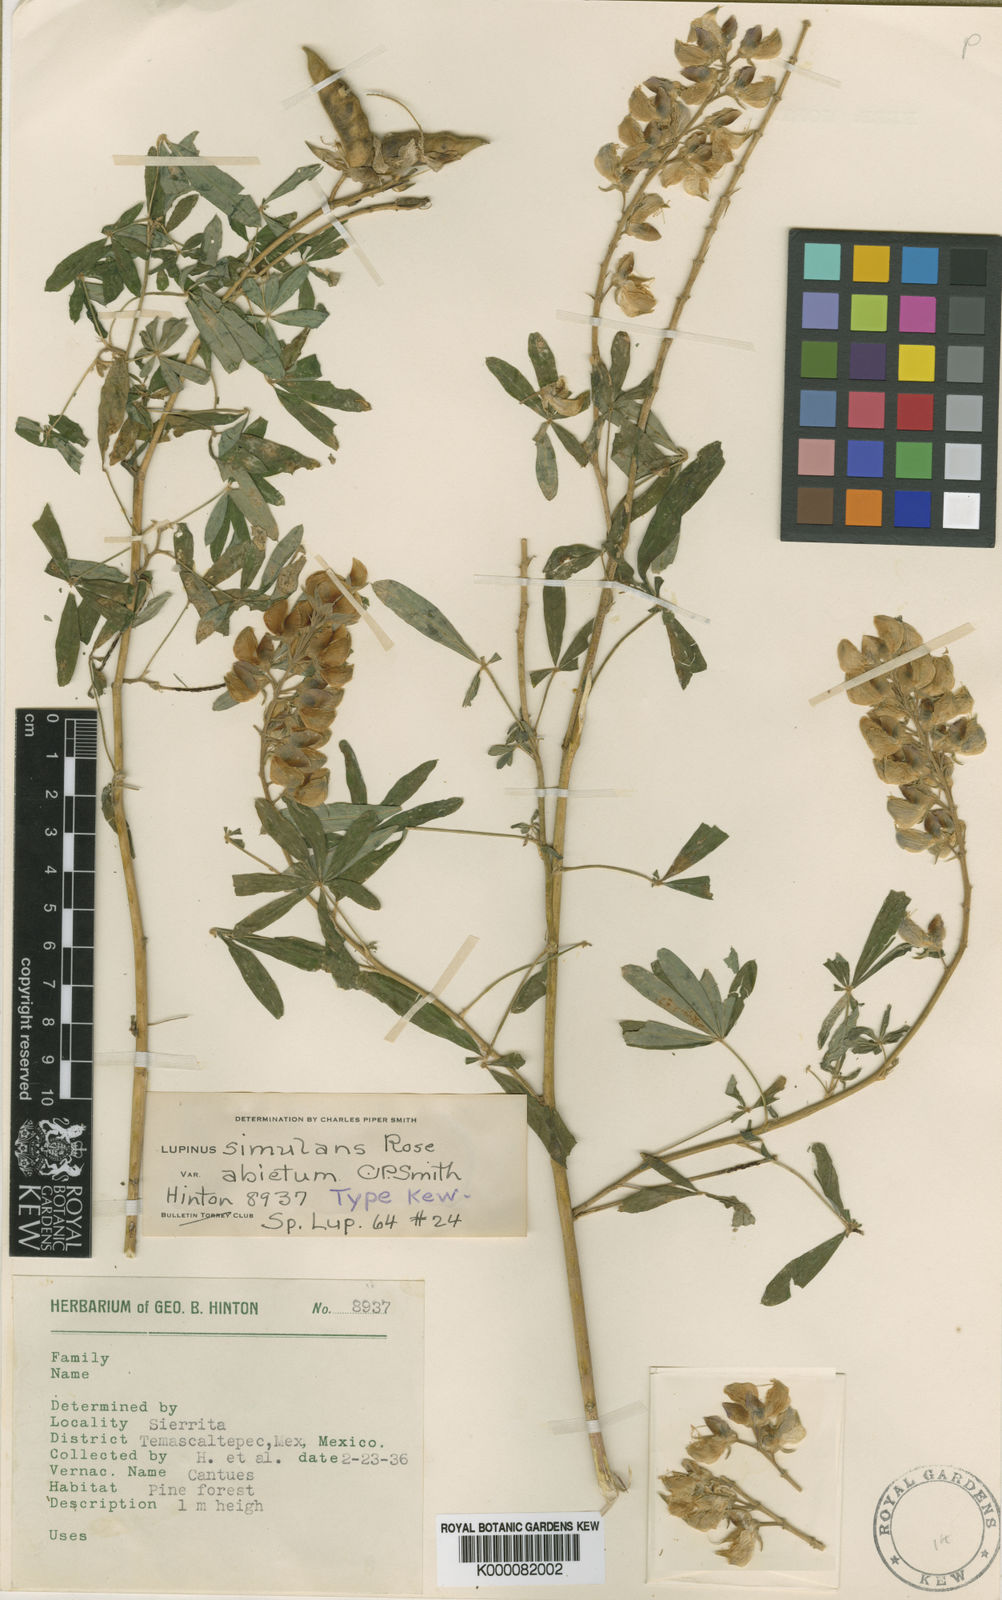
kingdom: Plantae
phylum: Tracheophyta
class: Magnoliopsida
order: Fabales
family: Fabaceae
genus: Lupinus
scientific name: Lupinus simulans
